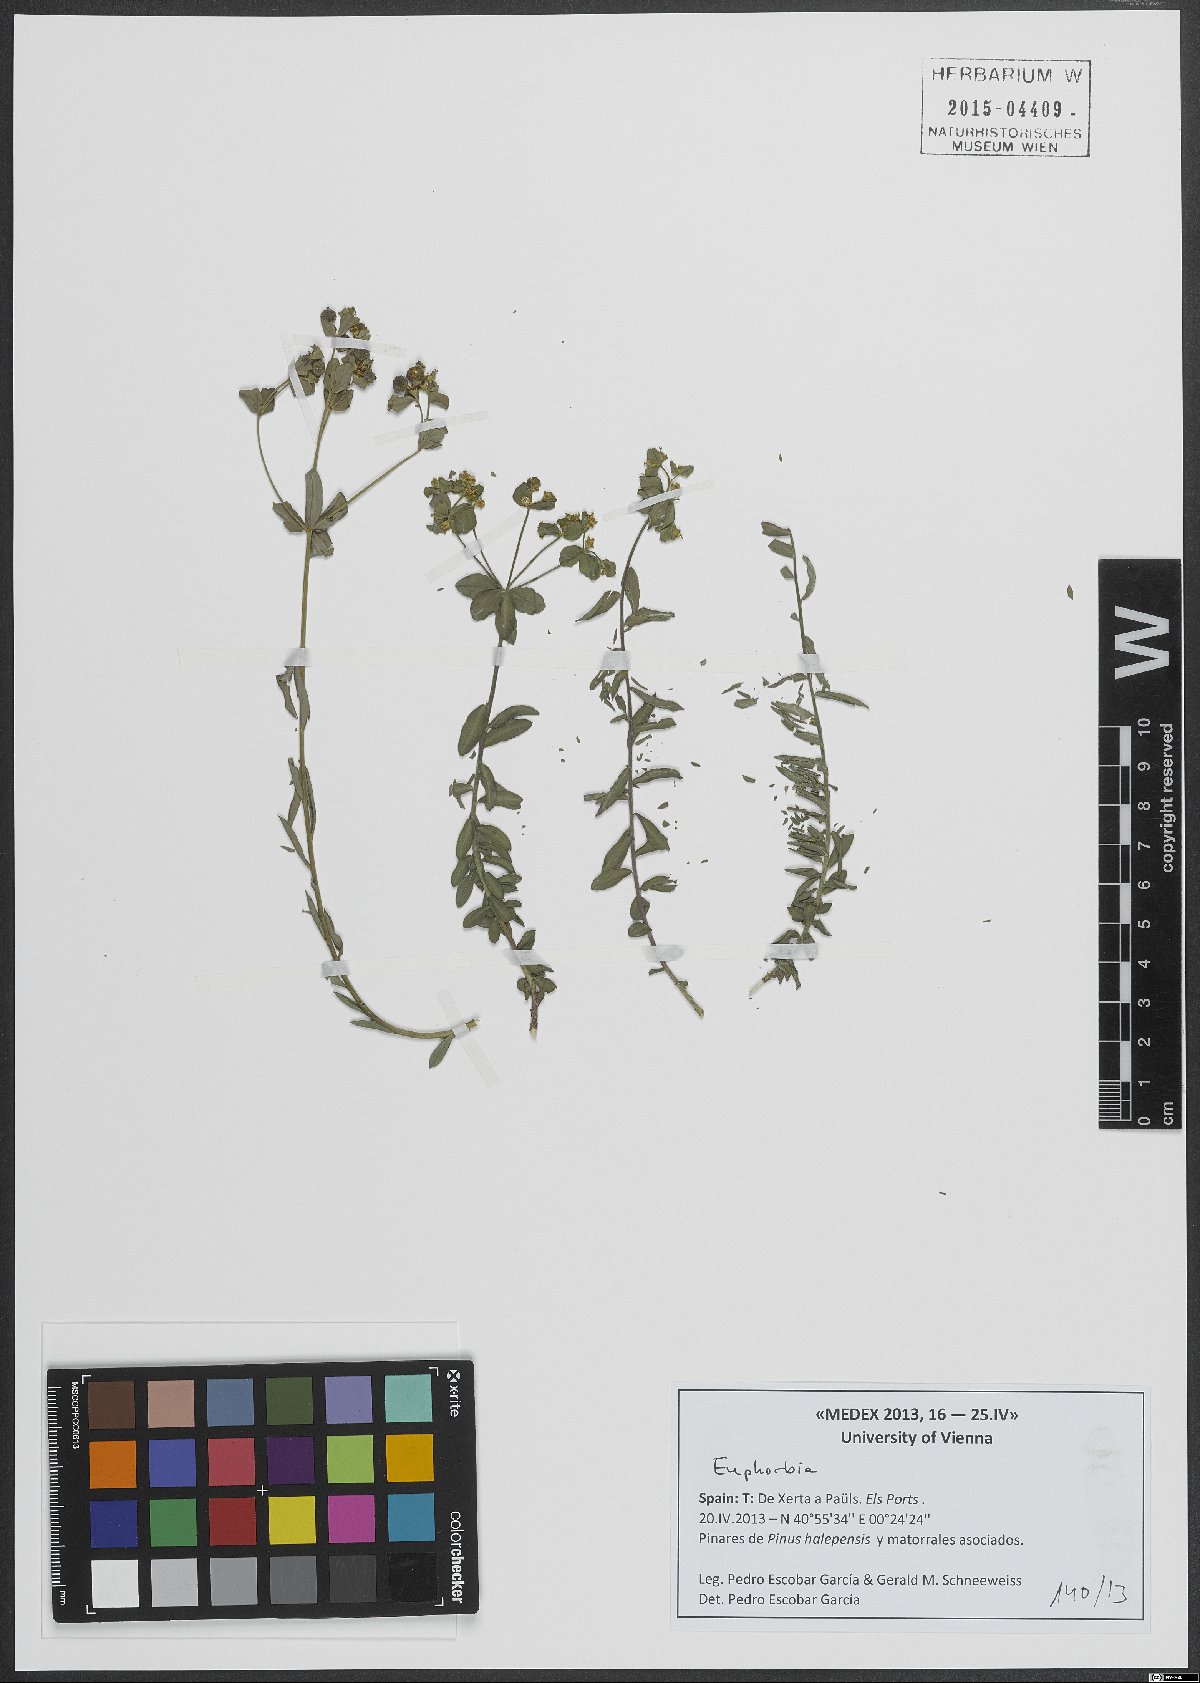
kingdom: Plantae
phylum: Tracheophyta
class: Magnoliopsida
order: Malpighiales
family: Euphorbiaceae
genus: Euphorbia
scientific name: Euphorbia
